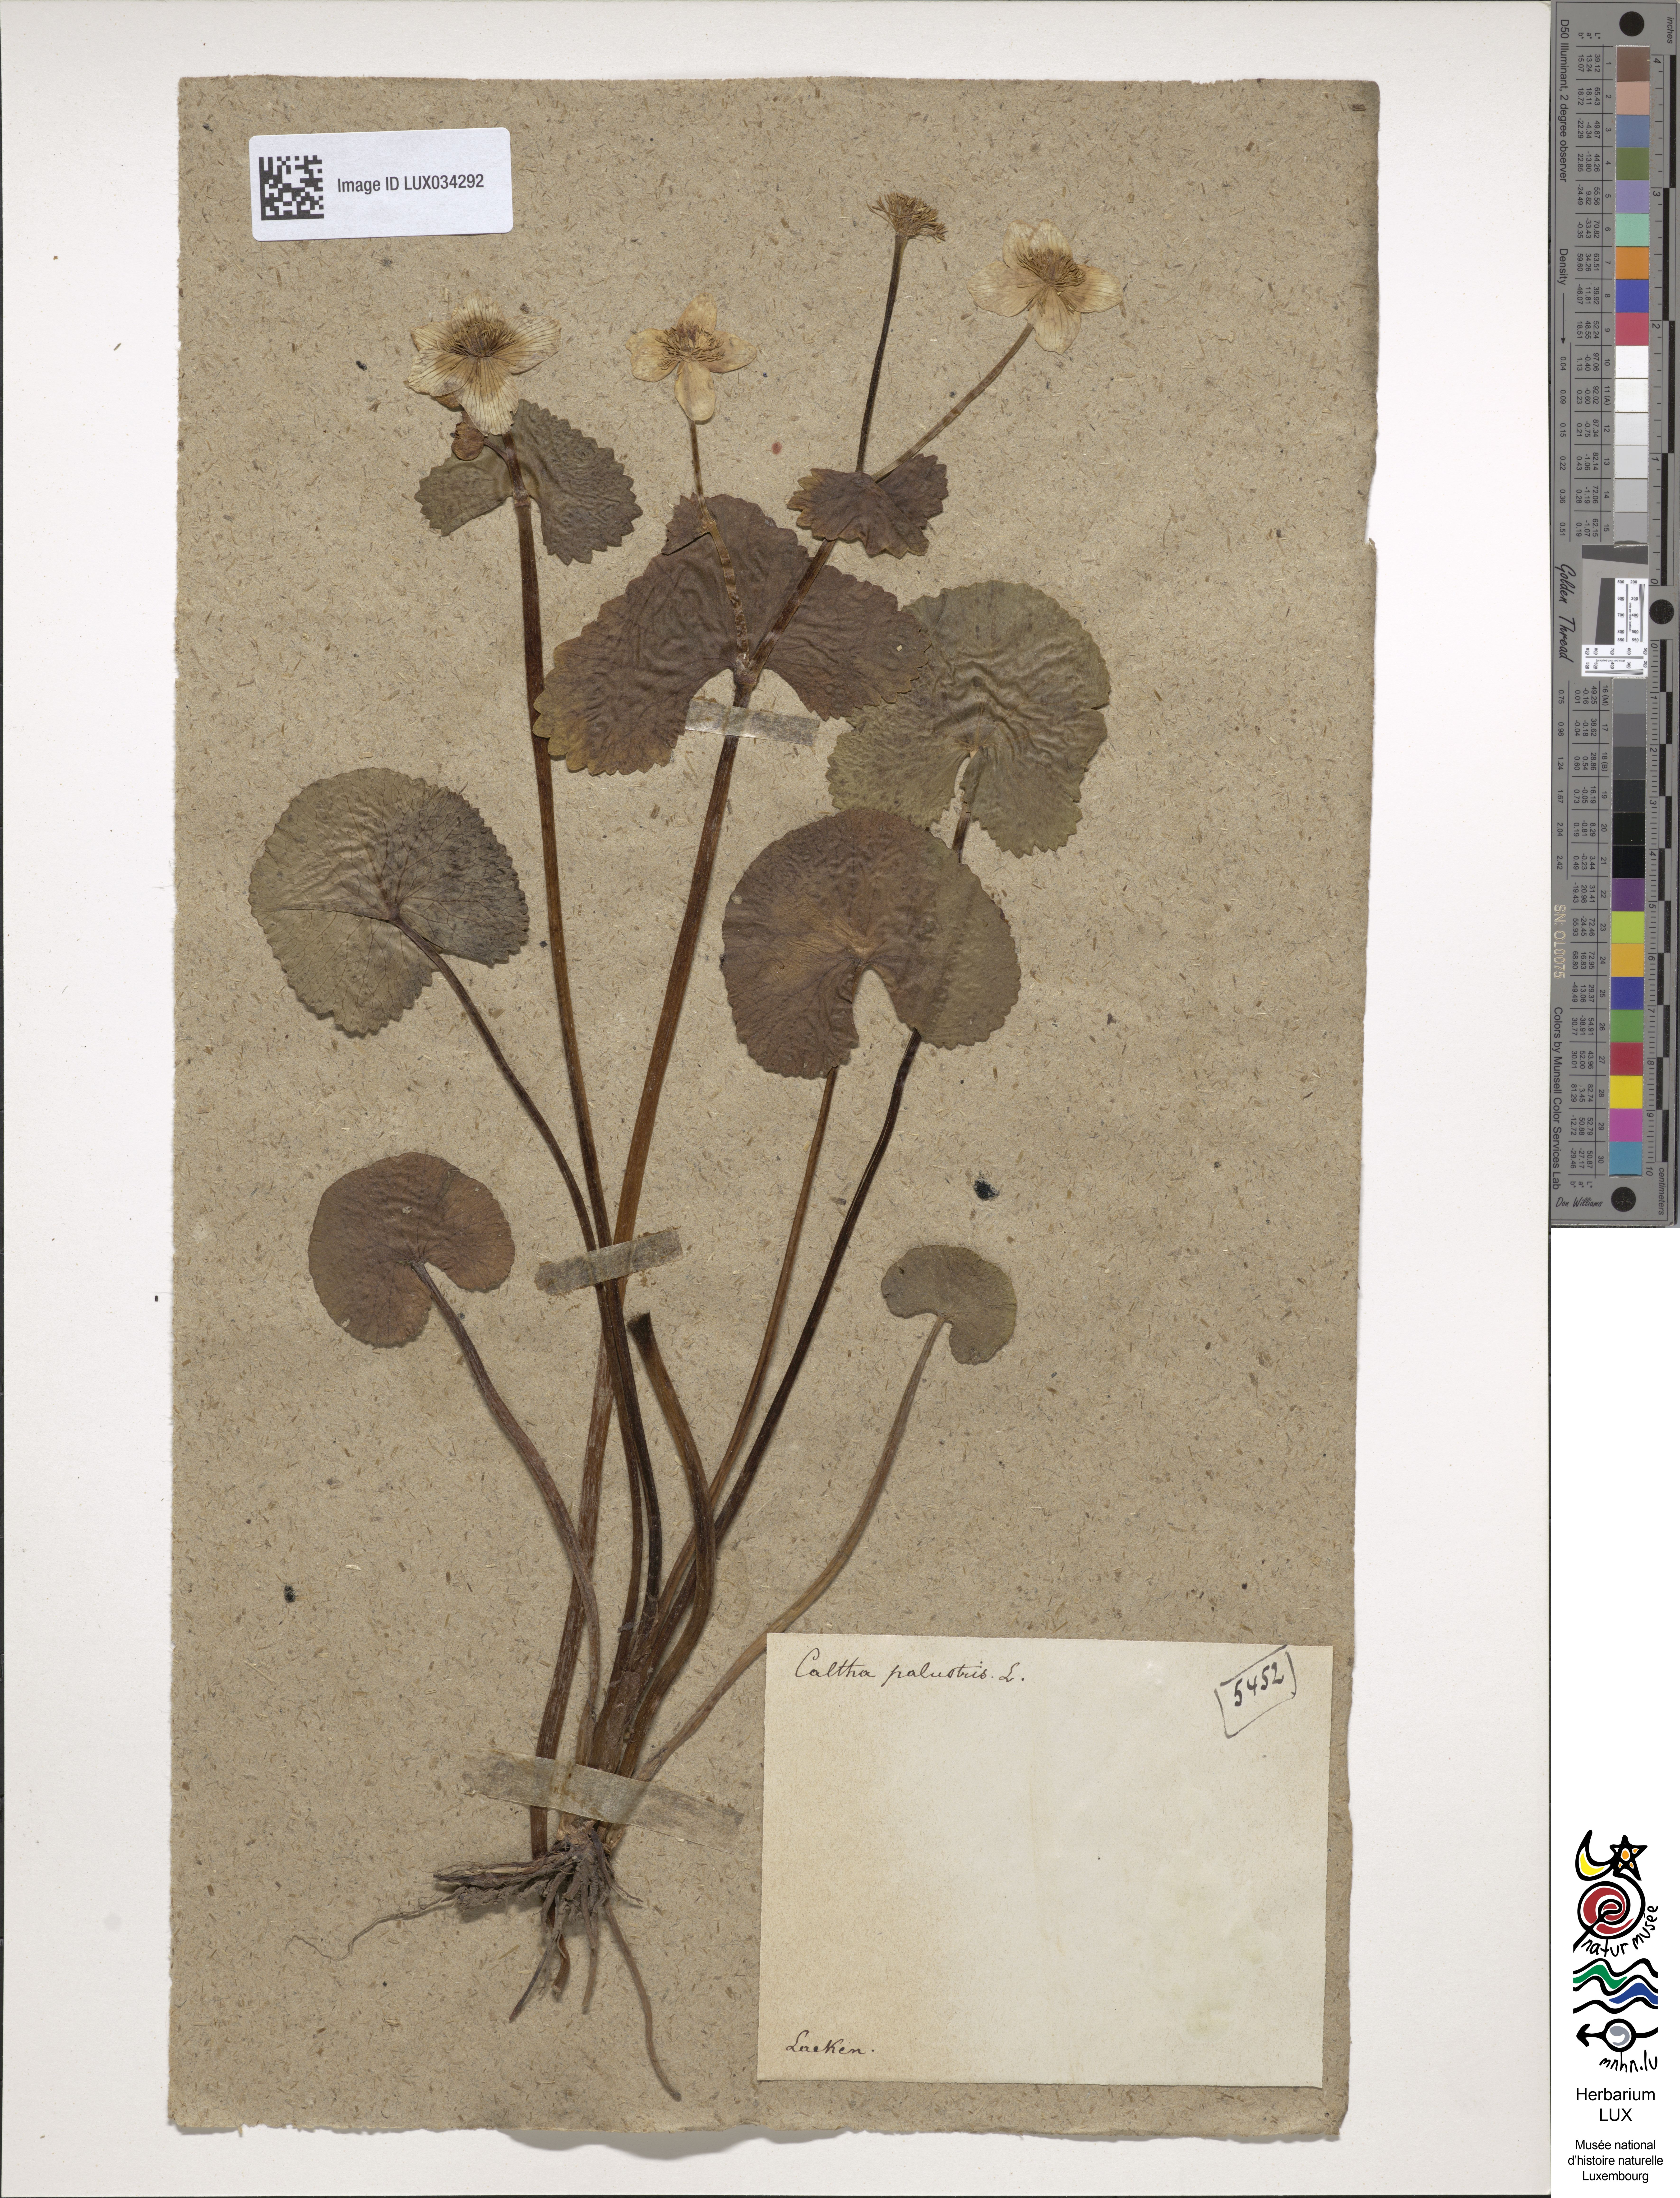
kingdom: Plantae
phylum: Tracheophyta
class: Magnoliopsida
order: Ranunculales
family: Ranunculaceae
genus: Caltha
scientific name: Caltha palustris
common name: Marsh marigold
